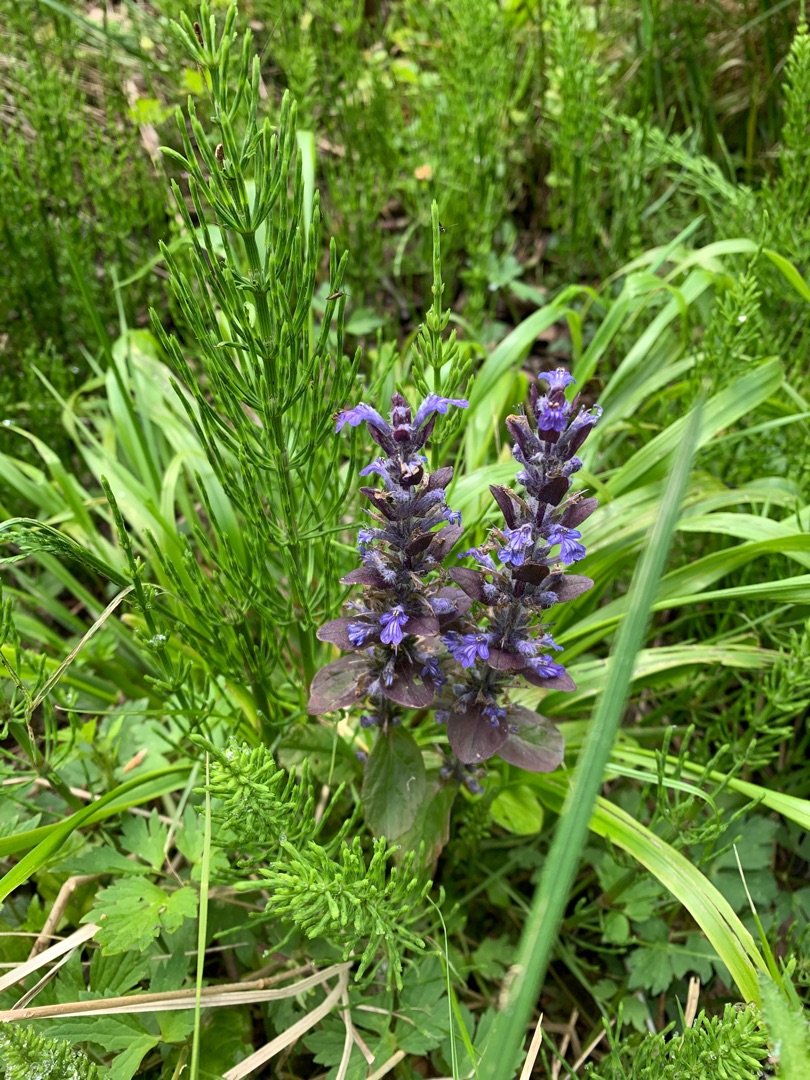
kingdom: Plantae
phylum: Tracheophyta
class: Magnoliopsida
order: Lamiales
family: Lamiaceae
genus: Ajuga
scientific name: Ajuga reptans
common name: Krybende læbeløs
